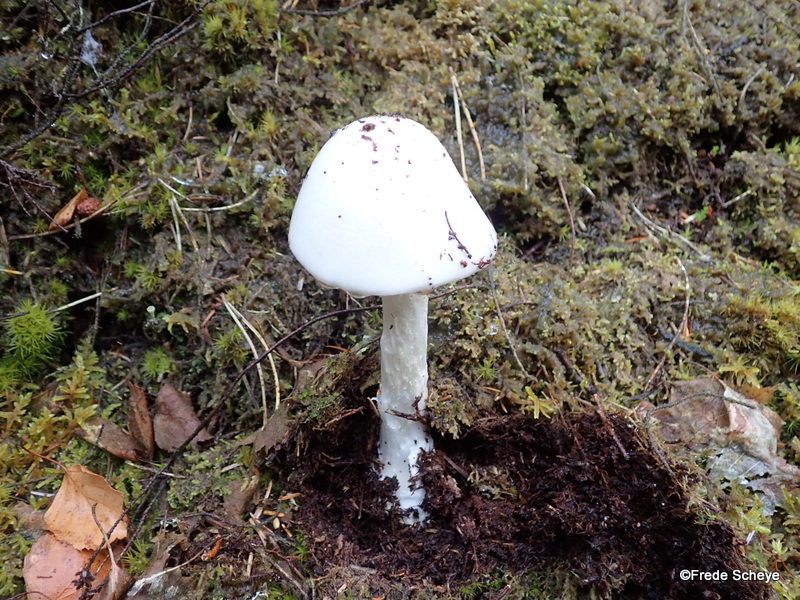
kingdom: Fungi
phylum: Basidiomycota
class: Agaricomycetes
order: Agaricales
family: Amanitaceae
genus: Amanita
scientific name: Amanita virosa
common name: snehvid fluesvamp
